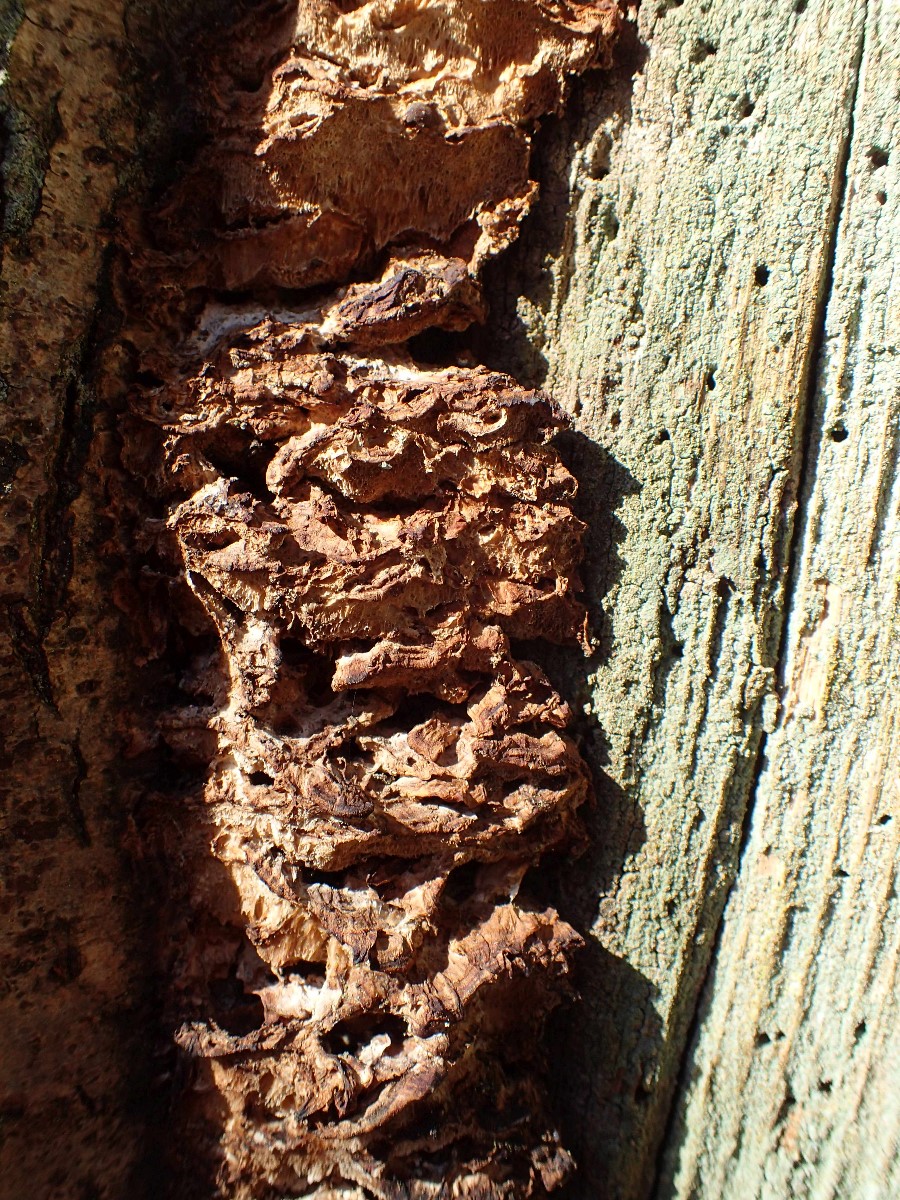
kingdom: Fungi
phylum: Basidiomycota
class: Agaricomycetes
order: Hymenochaetales
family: Hymenochaetaceae
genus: Xanthoporia
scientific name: Xanthoporia radiata
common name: elle-spejlporesvamp
